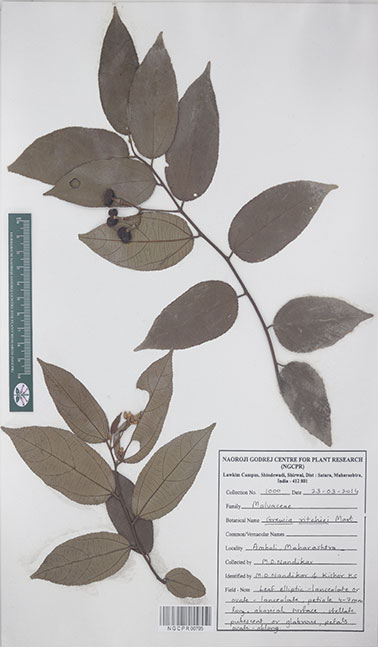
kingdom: Plantae
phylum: Tracheophyta
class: Magnoliopsida
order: Malvales
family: Malvaceae
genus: Grewia
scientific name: Grewia ritchiei
